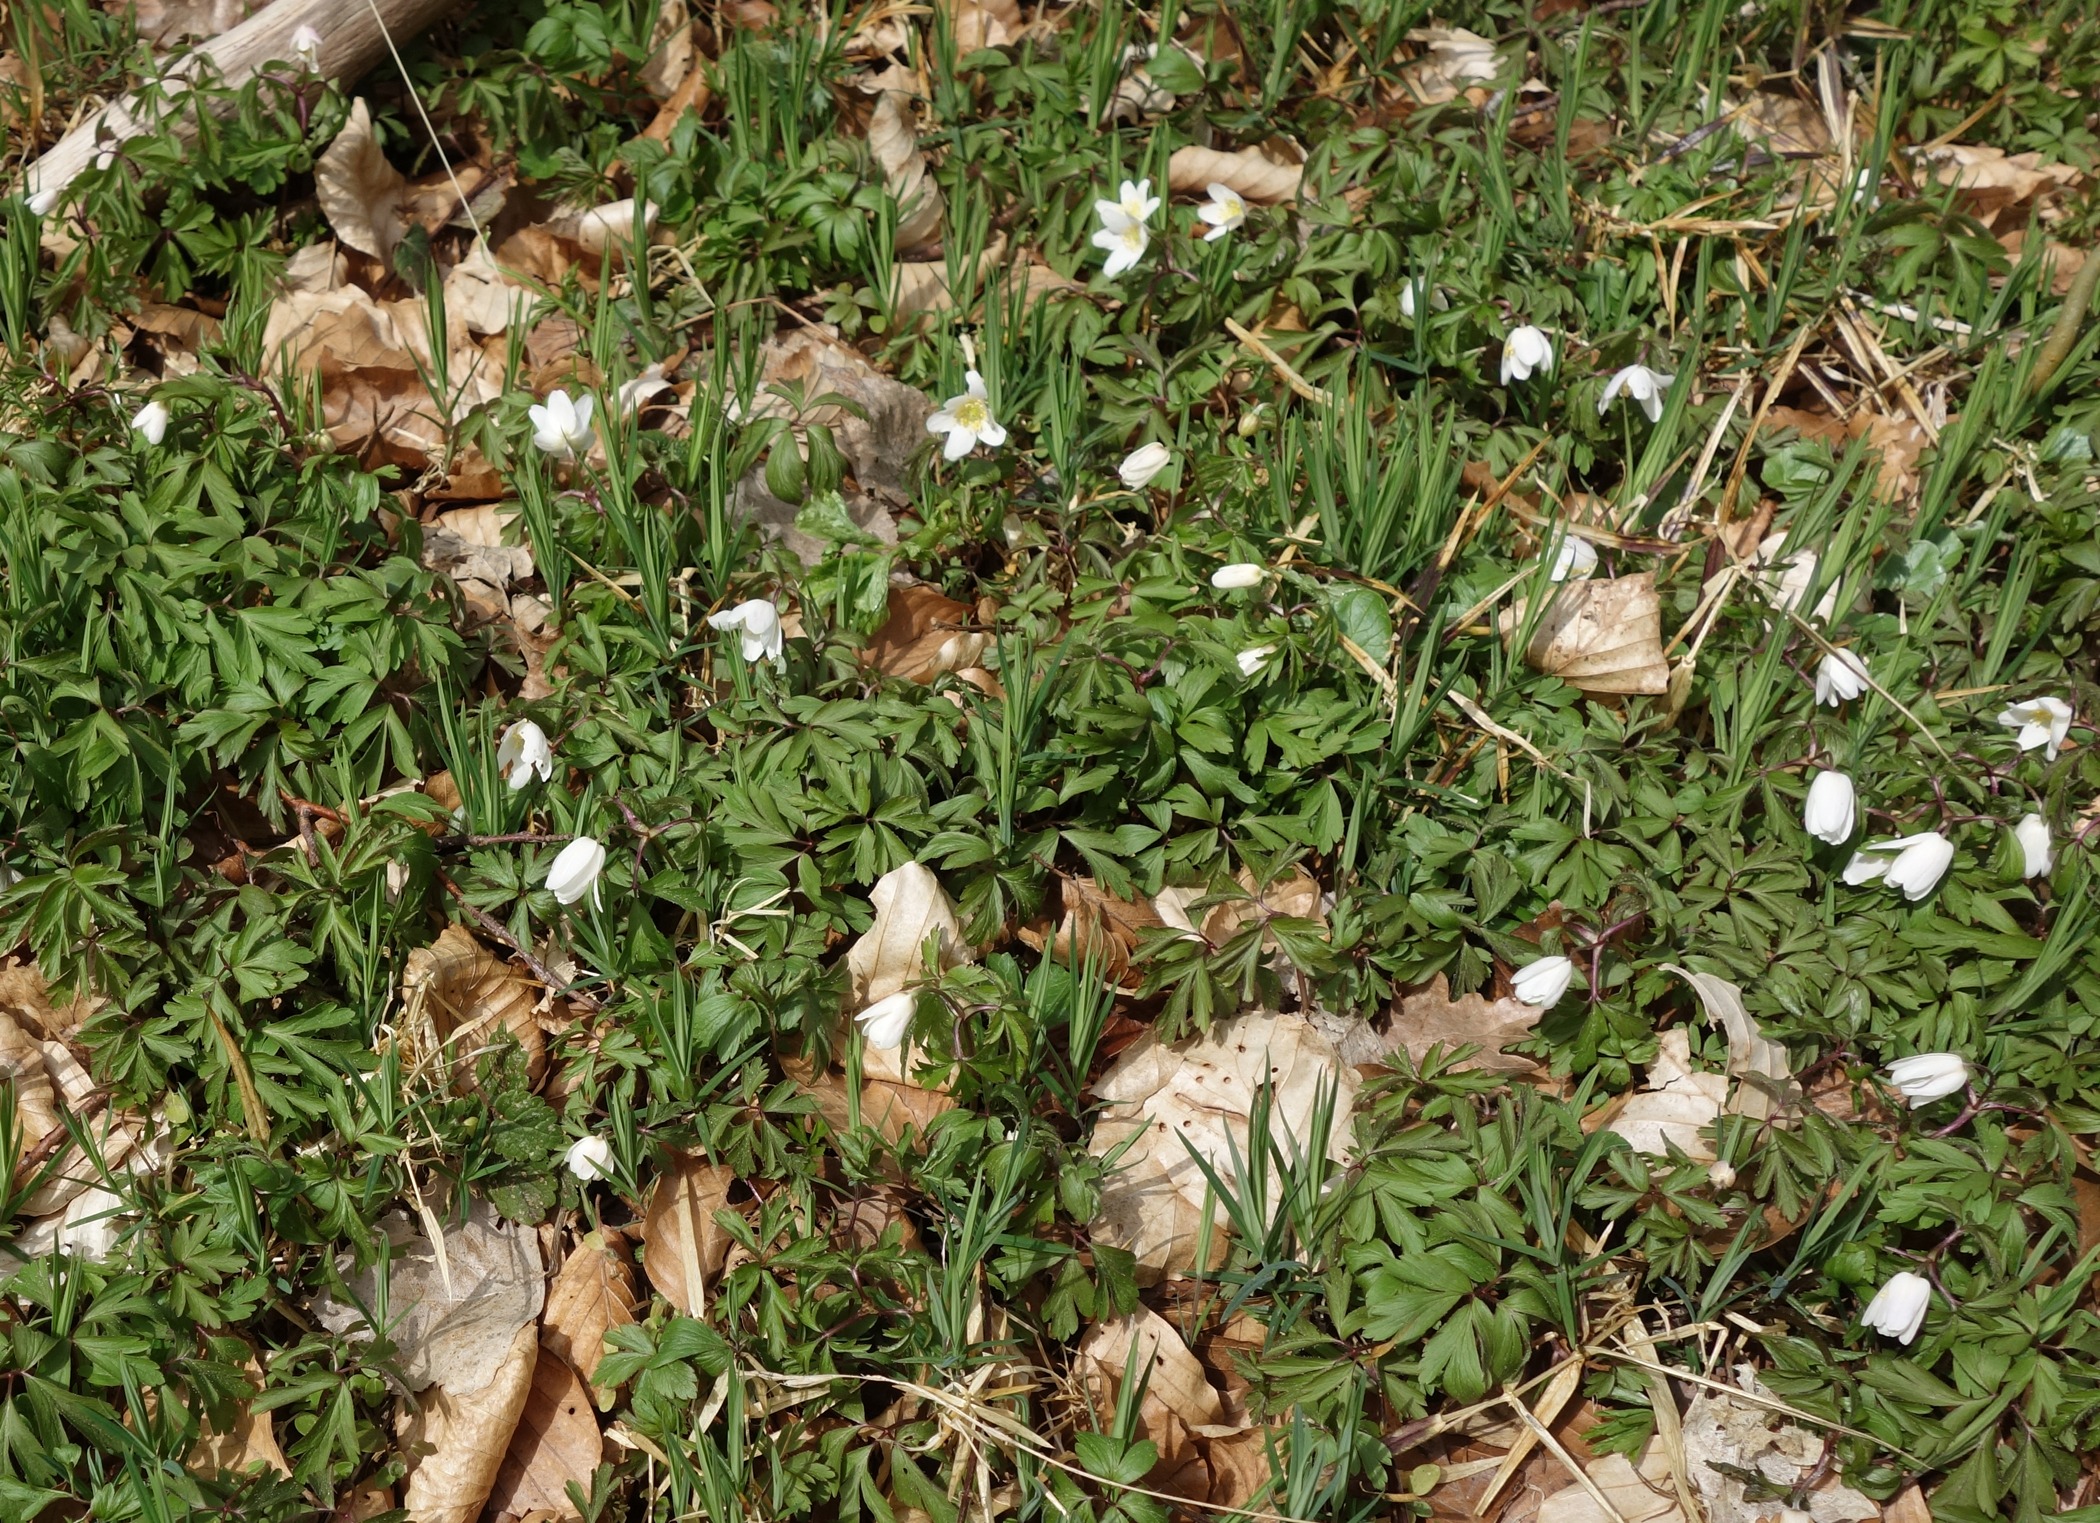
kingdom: Plantae
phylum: Tracheophyta
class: Magnoliopsida
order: Ranunculales
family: Ranunculaceae
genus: Anemone
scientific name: Anemone nemorosa
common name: Hvid anemone
